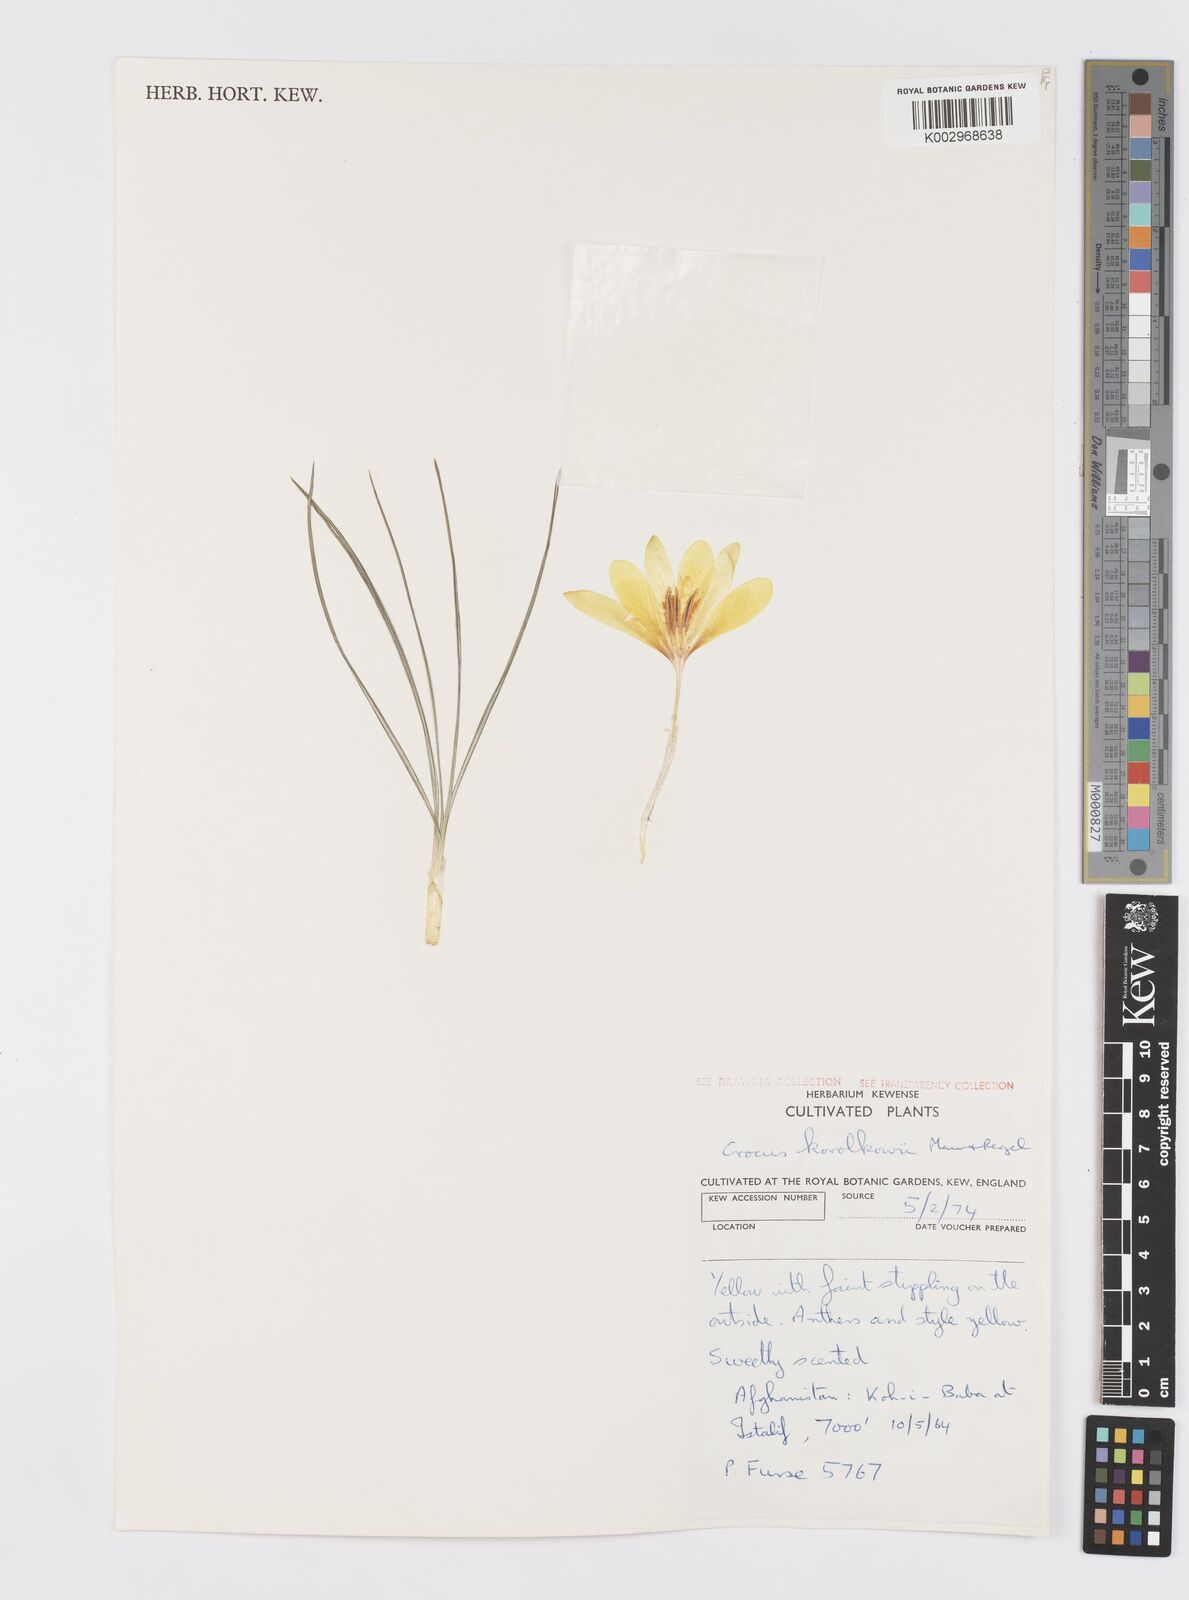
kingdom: Plantae
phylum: Tracheophyta
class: Liliopsida
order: Asparagales
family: Iridaceae
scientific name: Iridaceae
